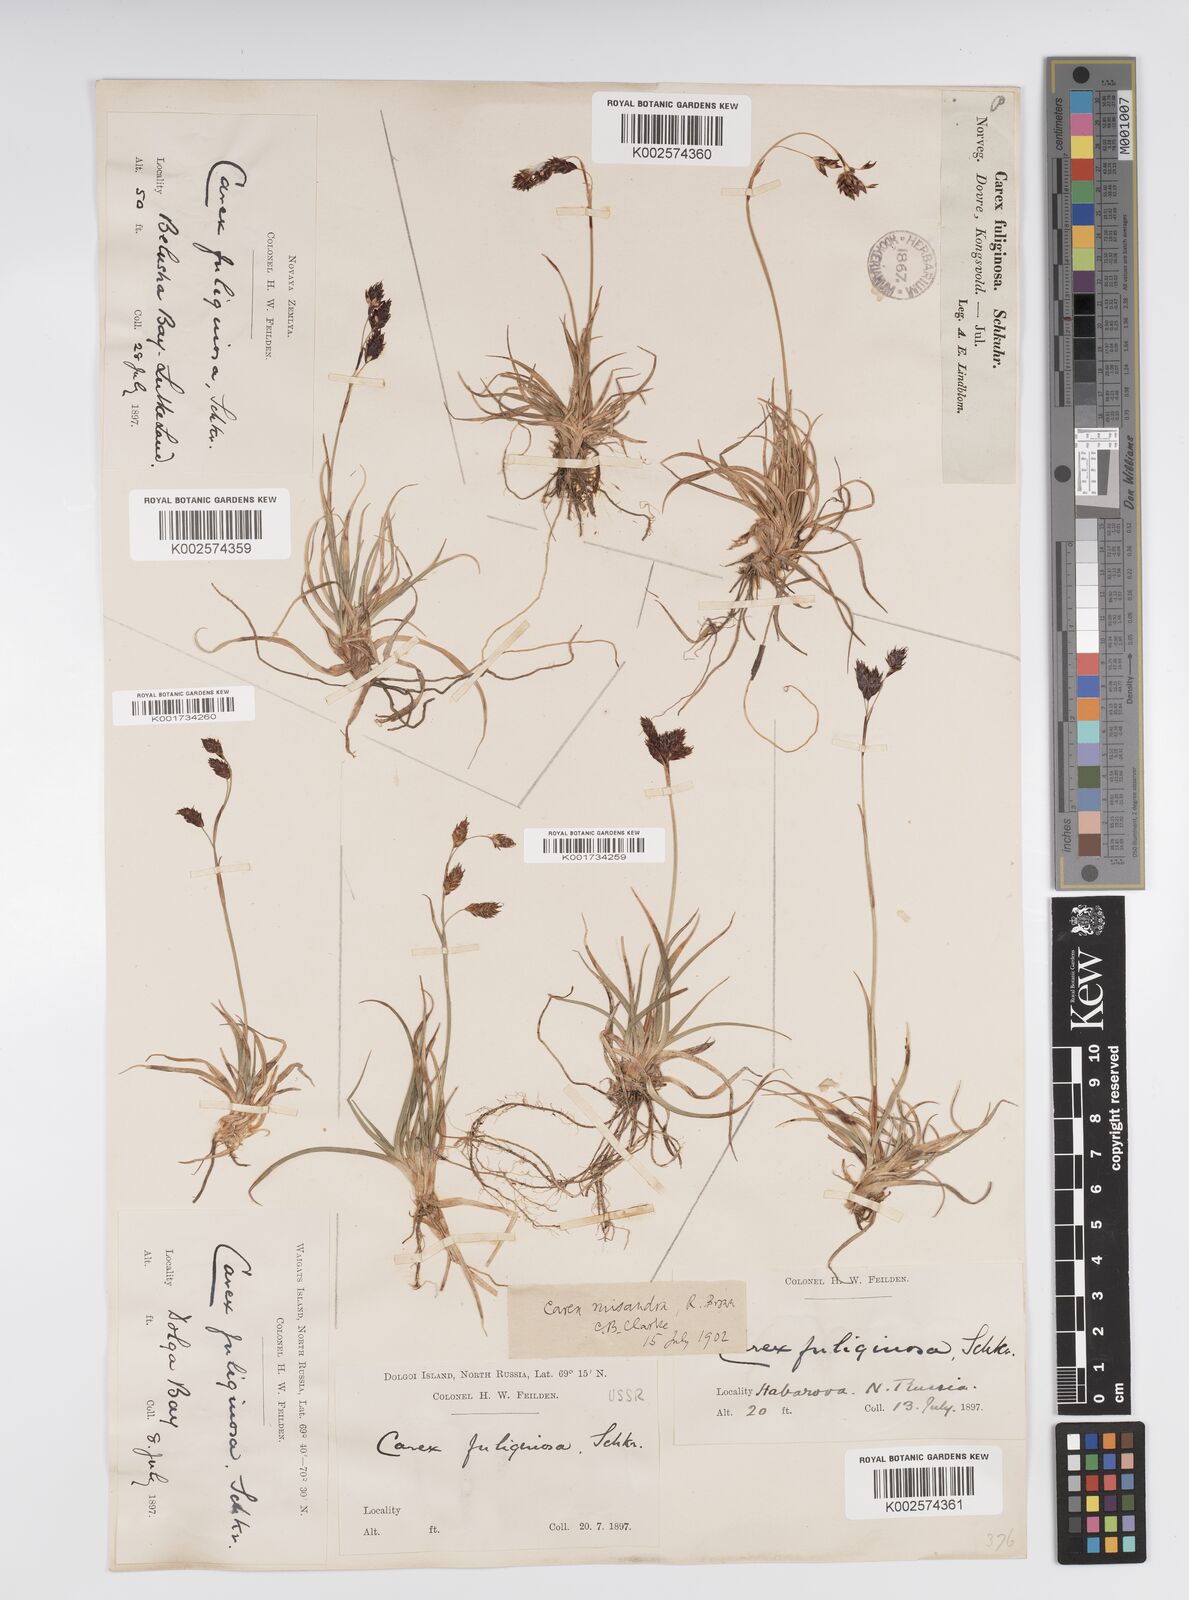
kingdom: Plantae
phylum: Tracheophyta
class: Liliopsida
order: Poales
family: Cyperaceae
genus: Carex
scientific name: Carex fuliginosa
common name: Few-flowered sedge
